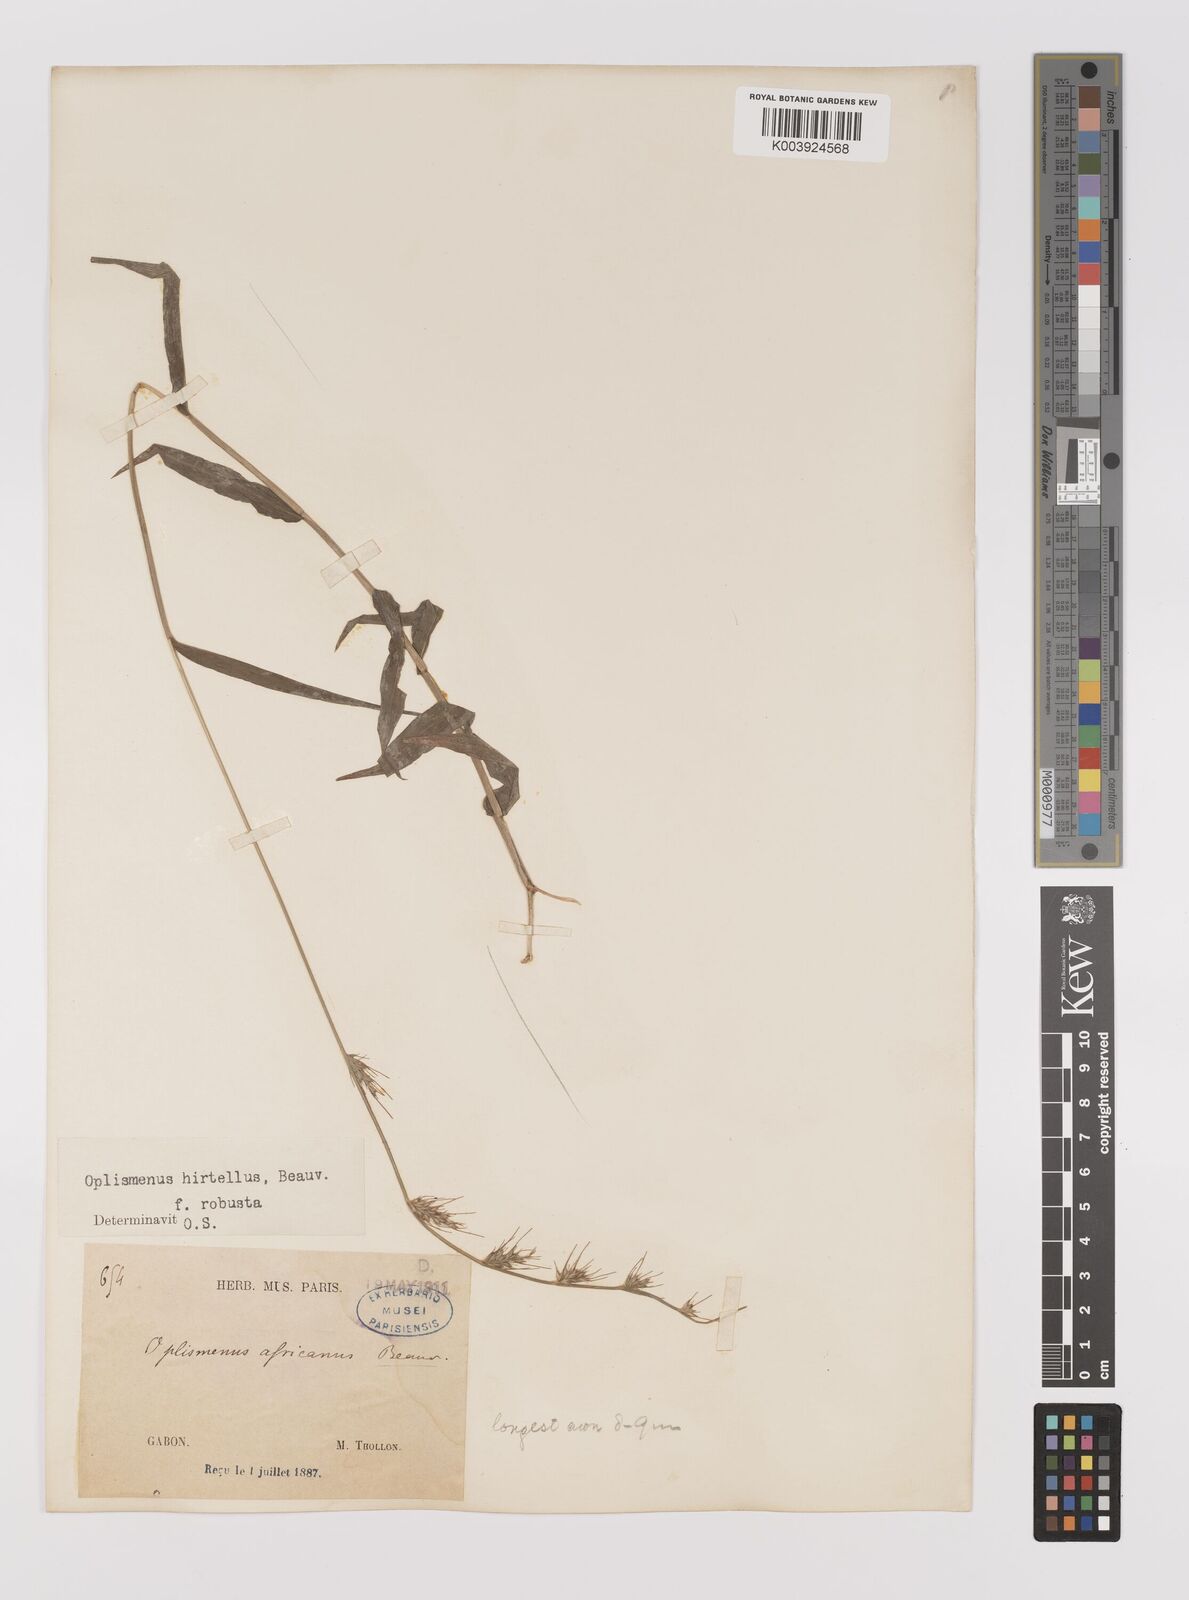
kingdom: Plantae
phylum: Tracheophyta
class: Liliopsida
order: Poales
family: Poaceae
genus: Oplismenus
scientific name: Oplismenus hirtellus
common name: Basketgrass
